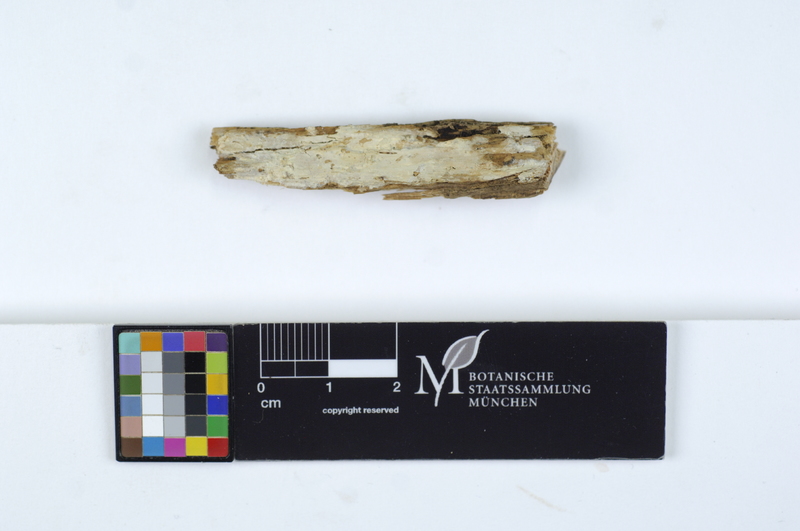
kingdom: Plantae
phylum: Tracheophyta
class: Pinopsida
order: Pinales
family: Pinaceae
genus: Picea
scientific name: Picea
